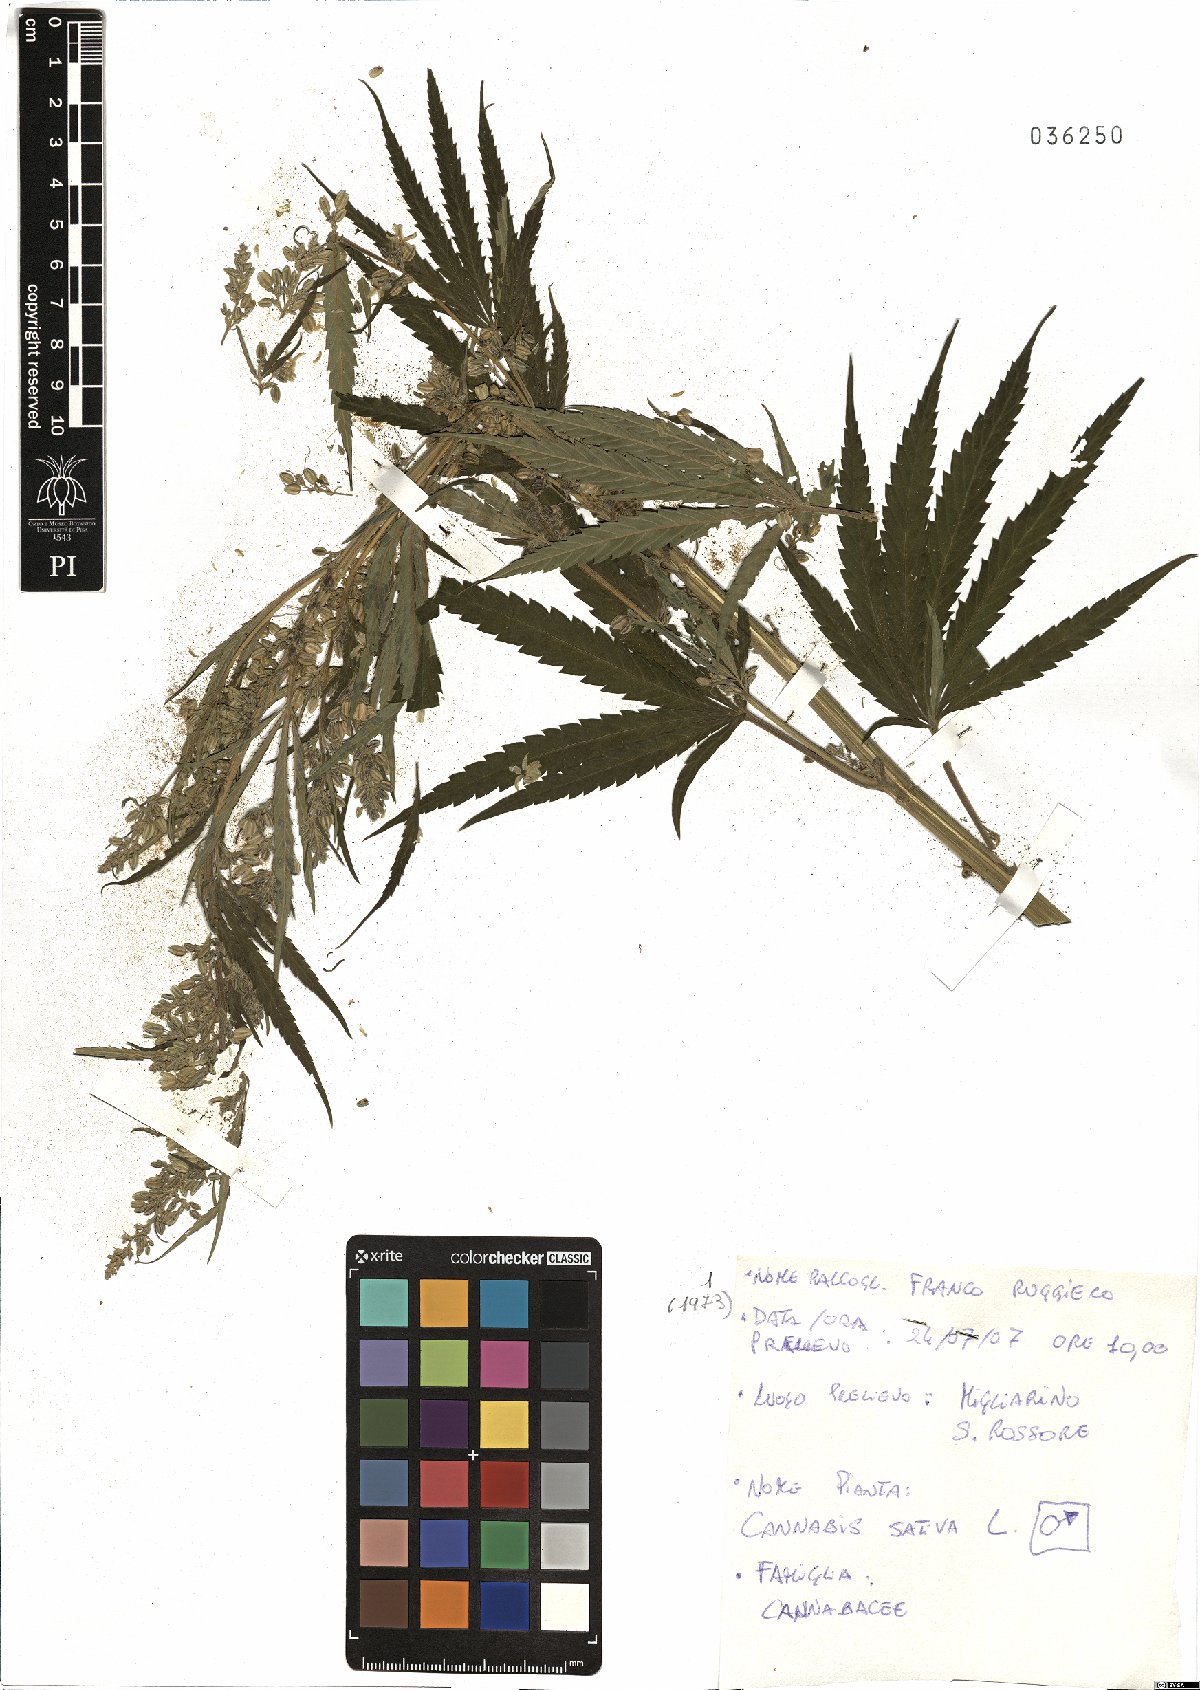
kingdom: Plantae
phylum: Tracheophyta
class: Magnoliopsida
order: Rosales
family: Cannabaceae
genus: Cannabis
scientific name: Cannabis sativa
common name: Hemp
